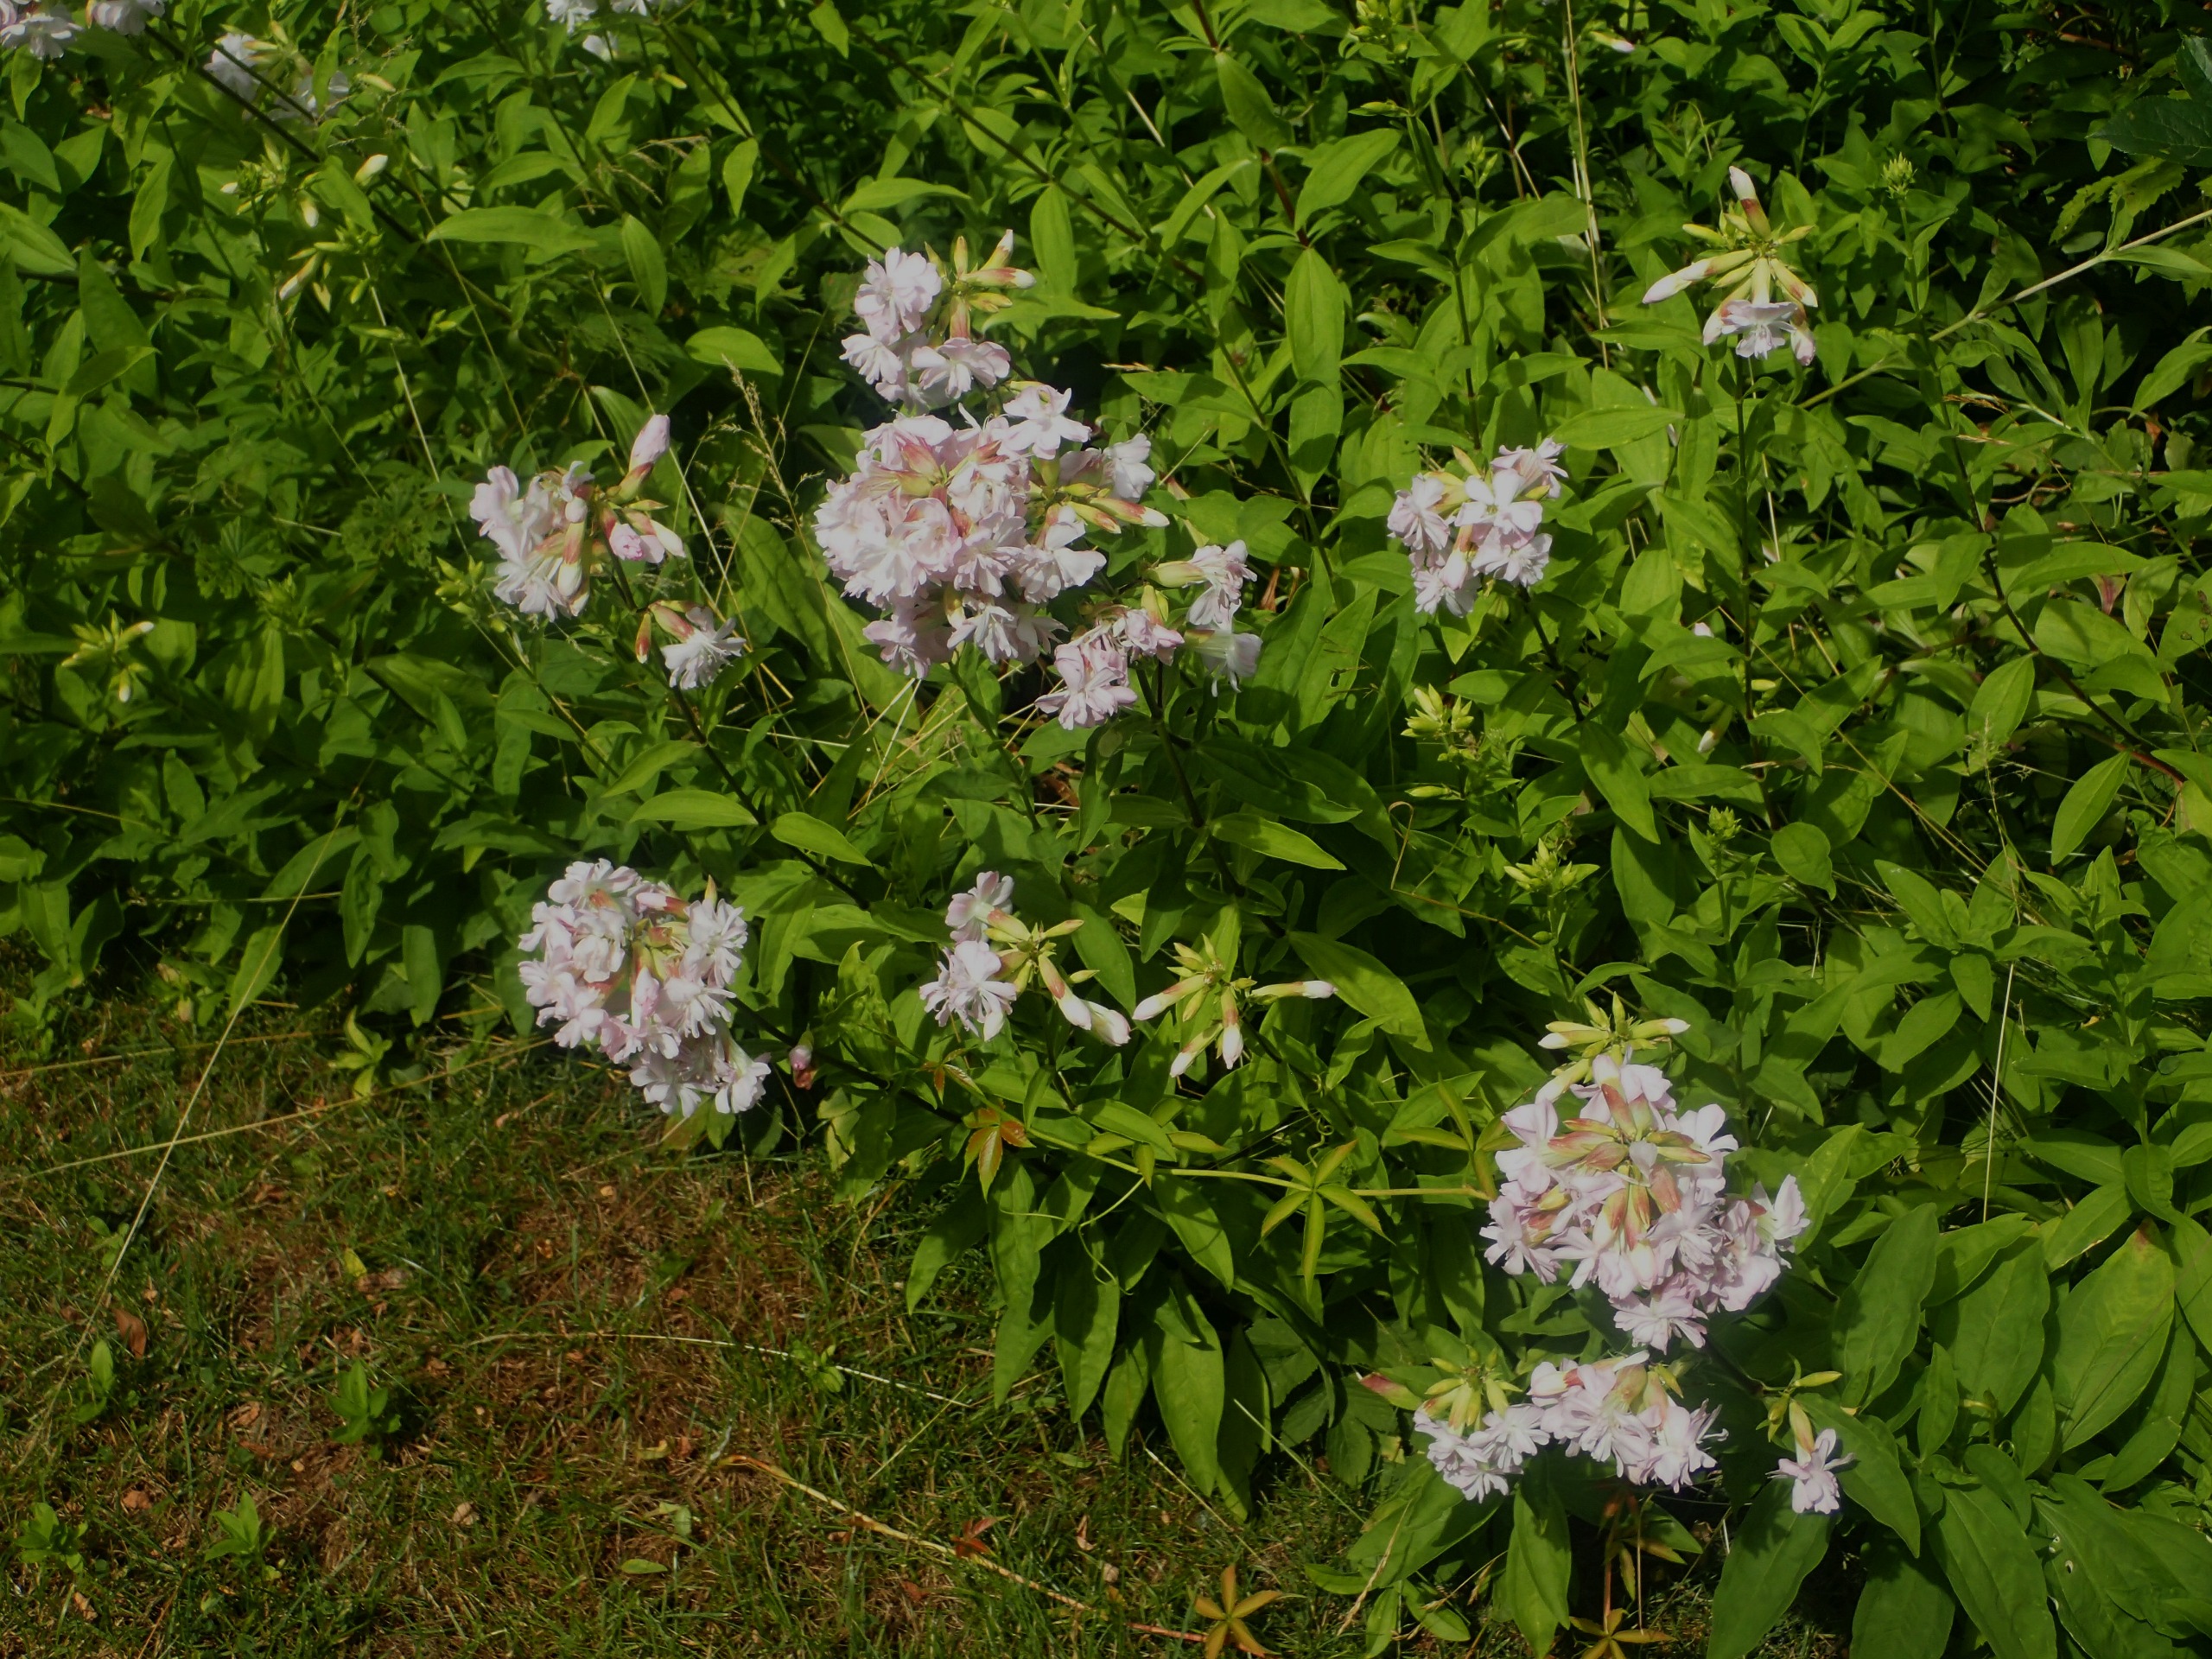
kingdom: Plantae
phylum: Tracheophyta
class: Magnoliopsida
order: Caryophyllales
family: Caryophyllaceae
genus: Saponaria
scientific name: Saponaria officinalis
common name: Sæbeurt
